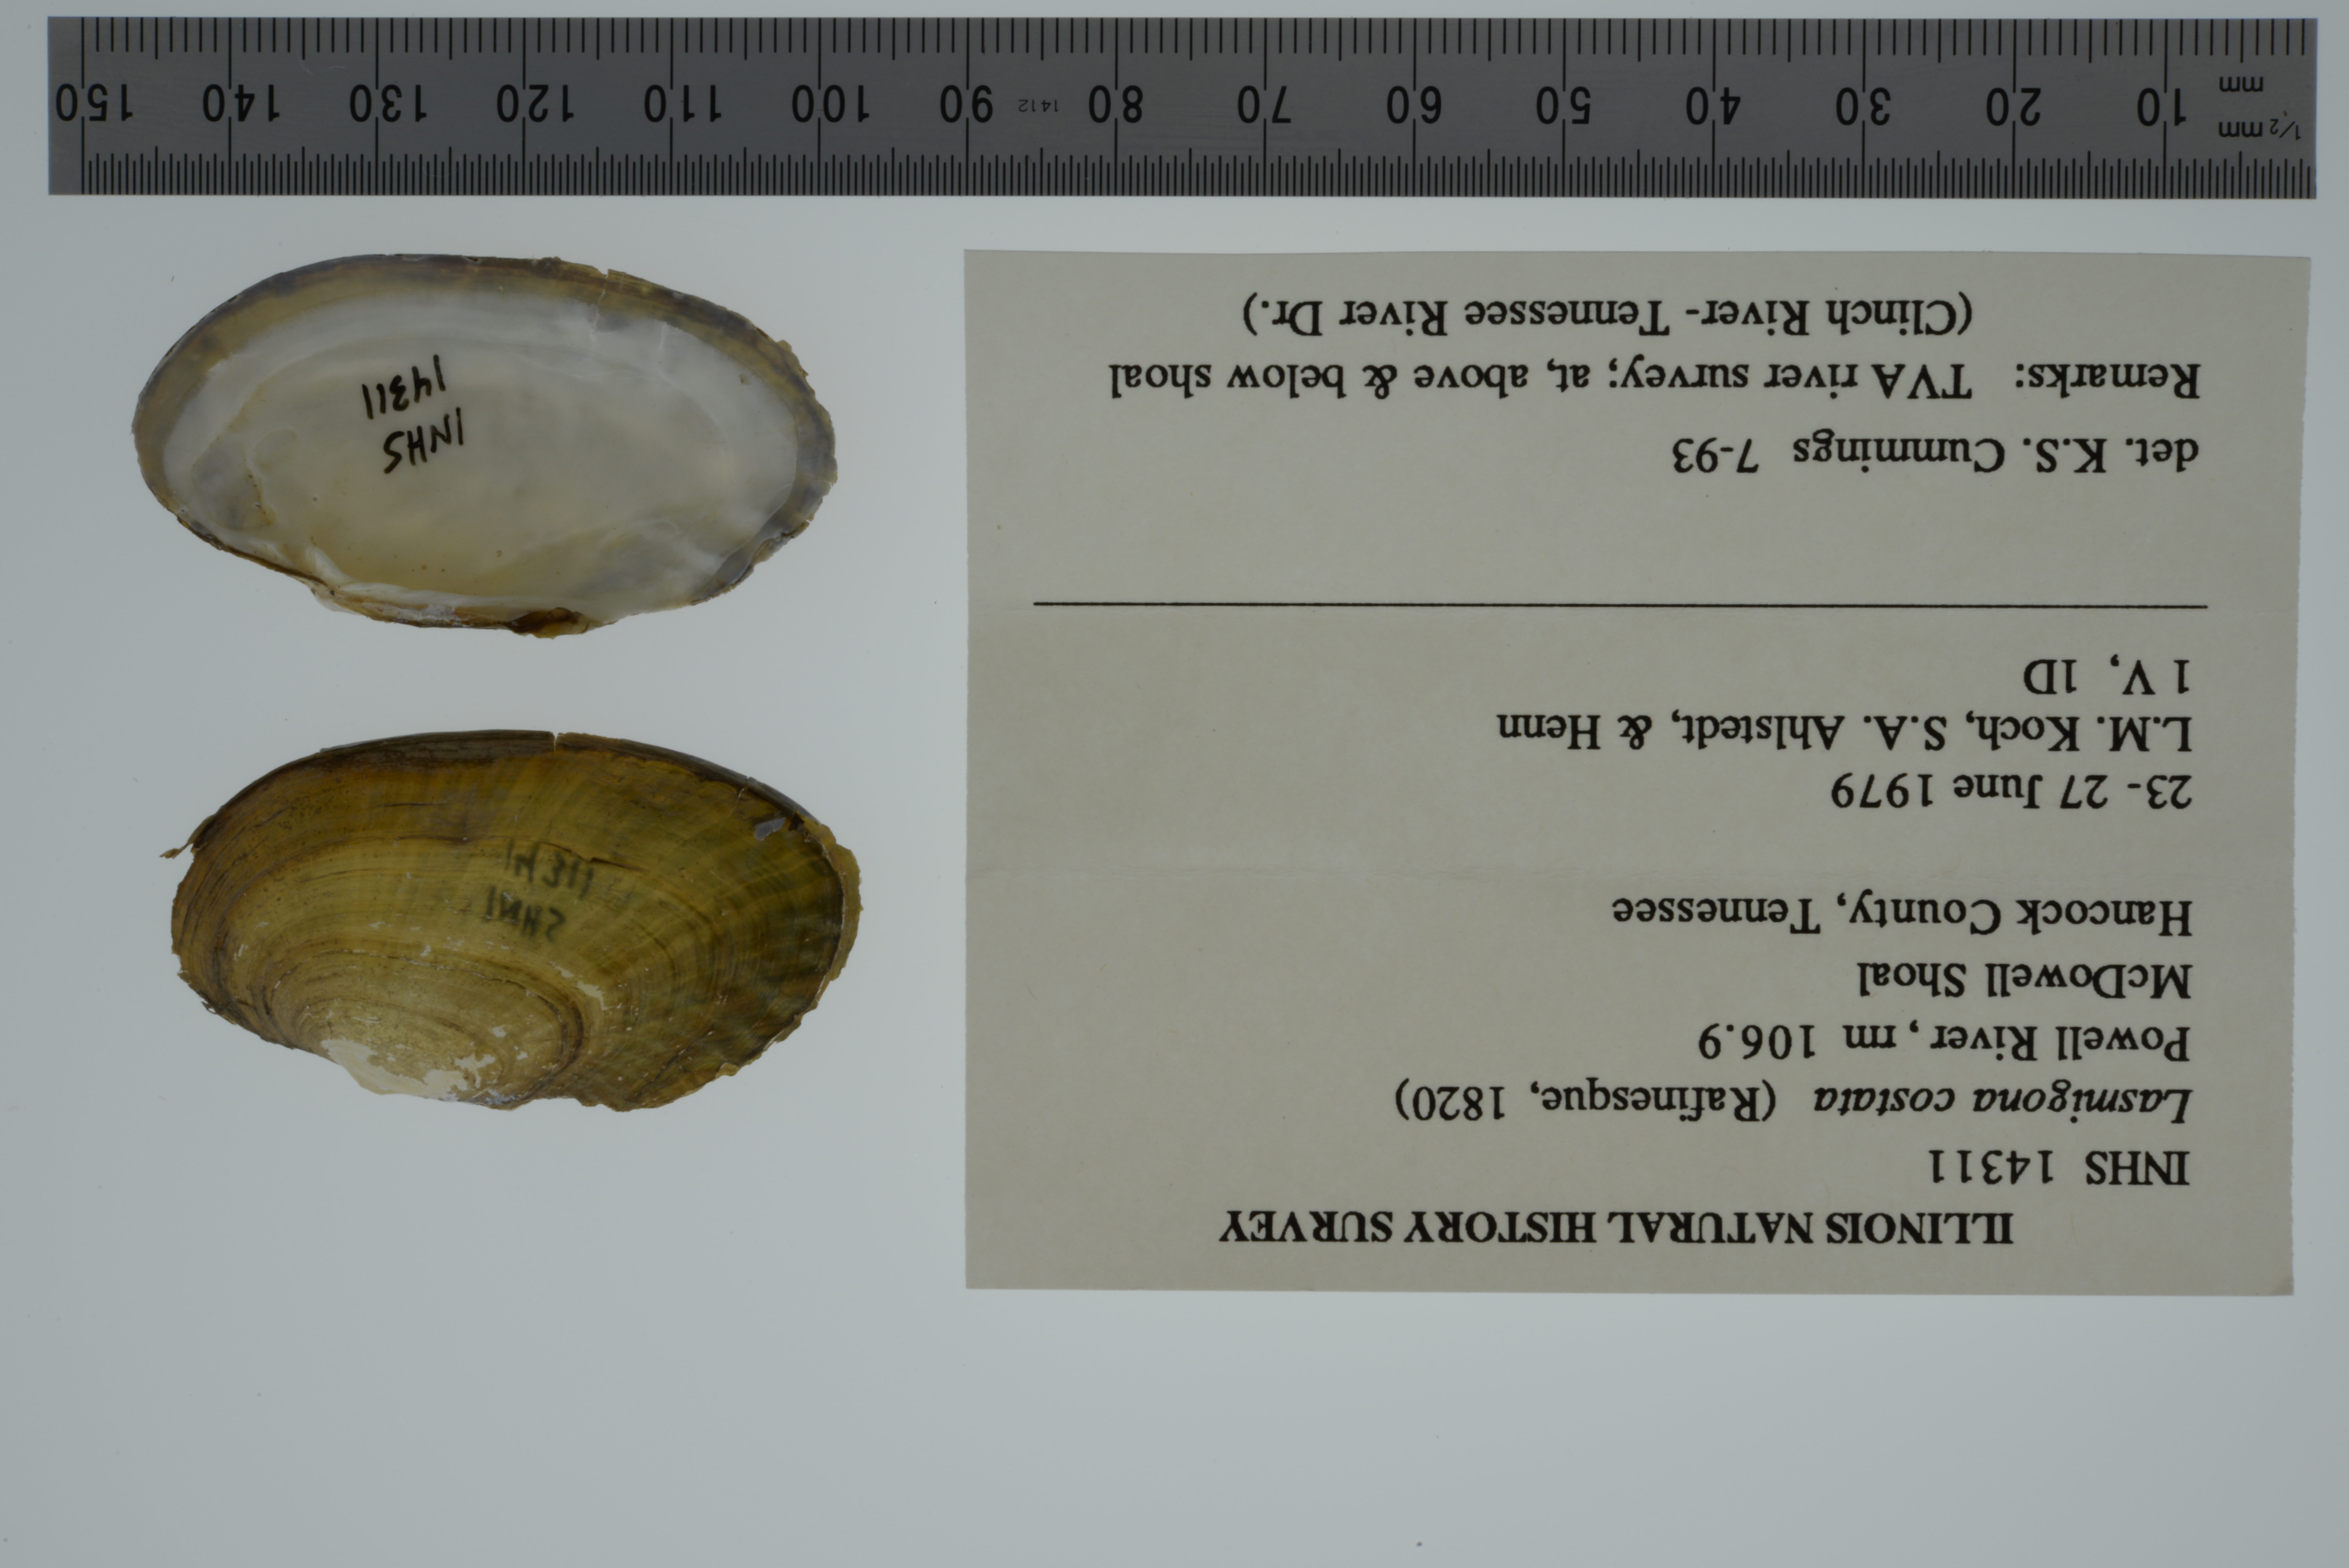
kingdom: Animalia
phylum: Mollusca
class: Bivalvia
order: Unionida
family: Unionidae
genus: Lasmigona
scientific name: Lasmigona costata
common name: Flutedshell
